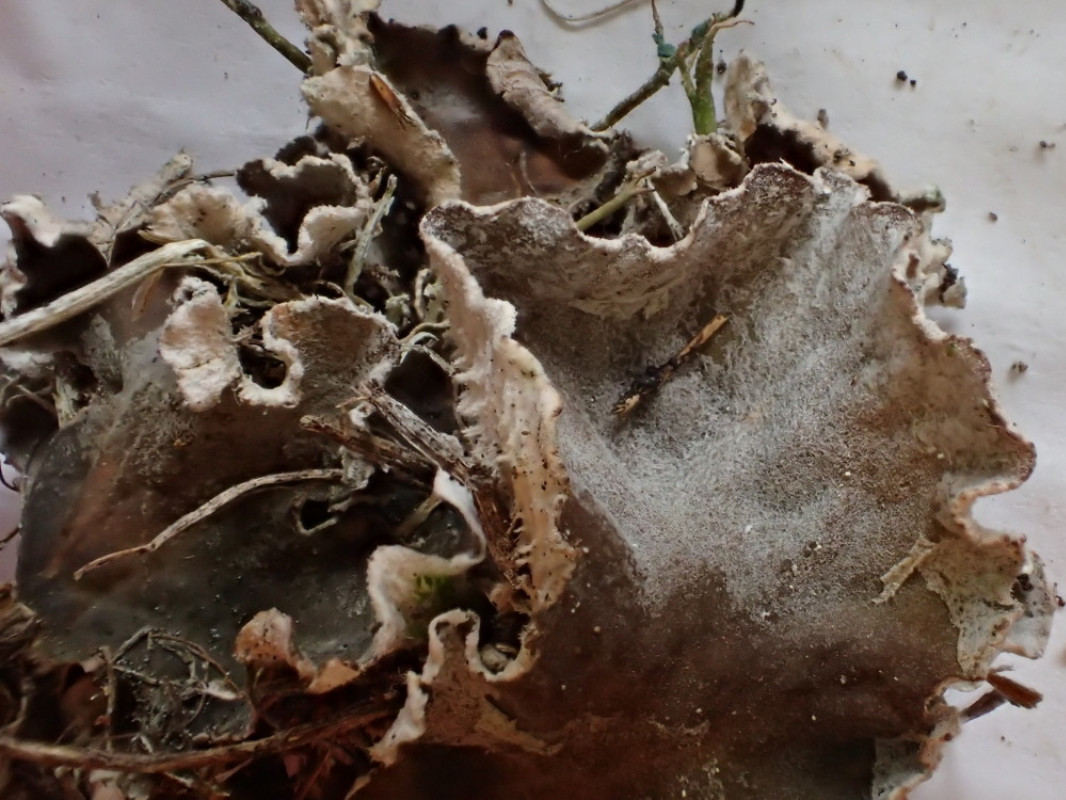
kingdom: Fungi
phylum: Ascomycota
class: Lecanoromycetes
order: Peltigerales
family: Peltigeraceae
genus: Peltigera
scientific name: Peltigera membranacea
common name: tynd skjoldlav
